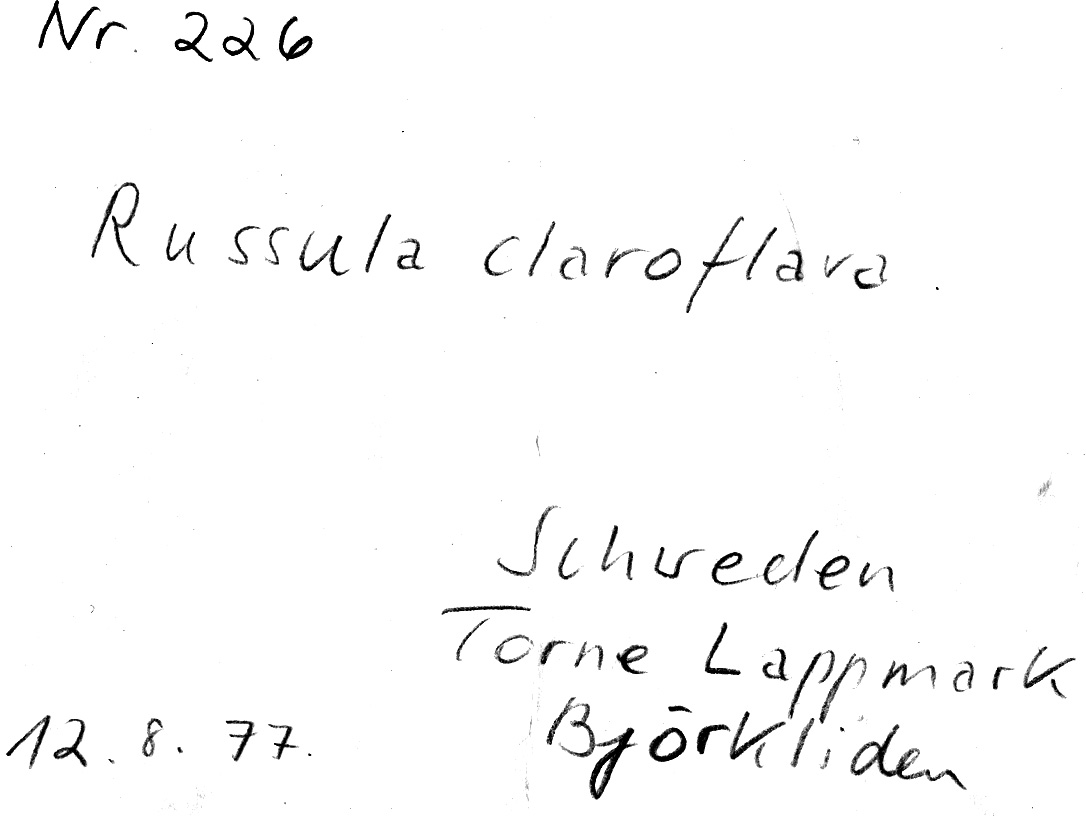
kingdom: Fungi
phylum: Basidiomycota
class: Agaricomycetes
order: Russulales
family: Russulaceae
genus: Russula
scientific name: Russula claroflava
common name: The yellow swamp brittlegill
